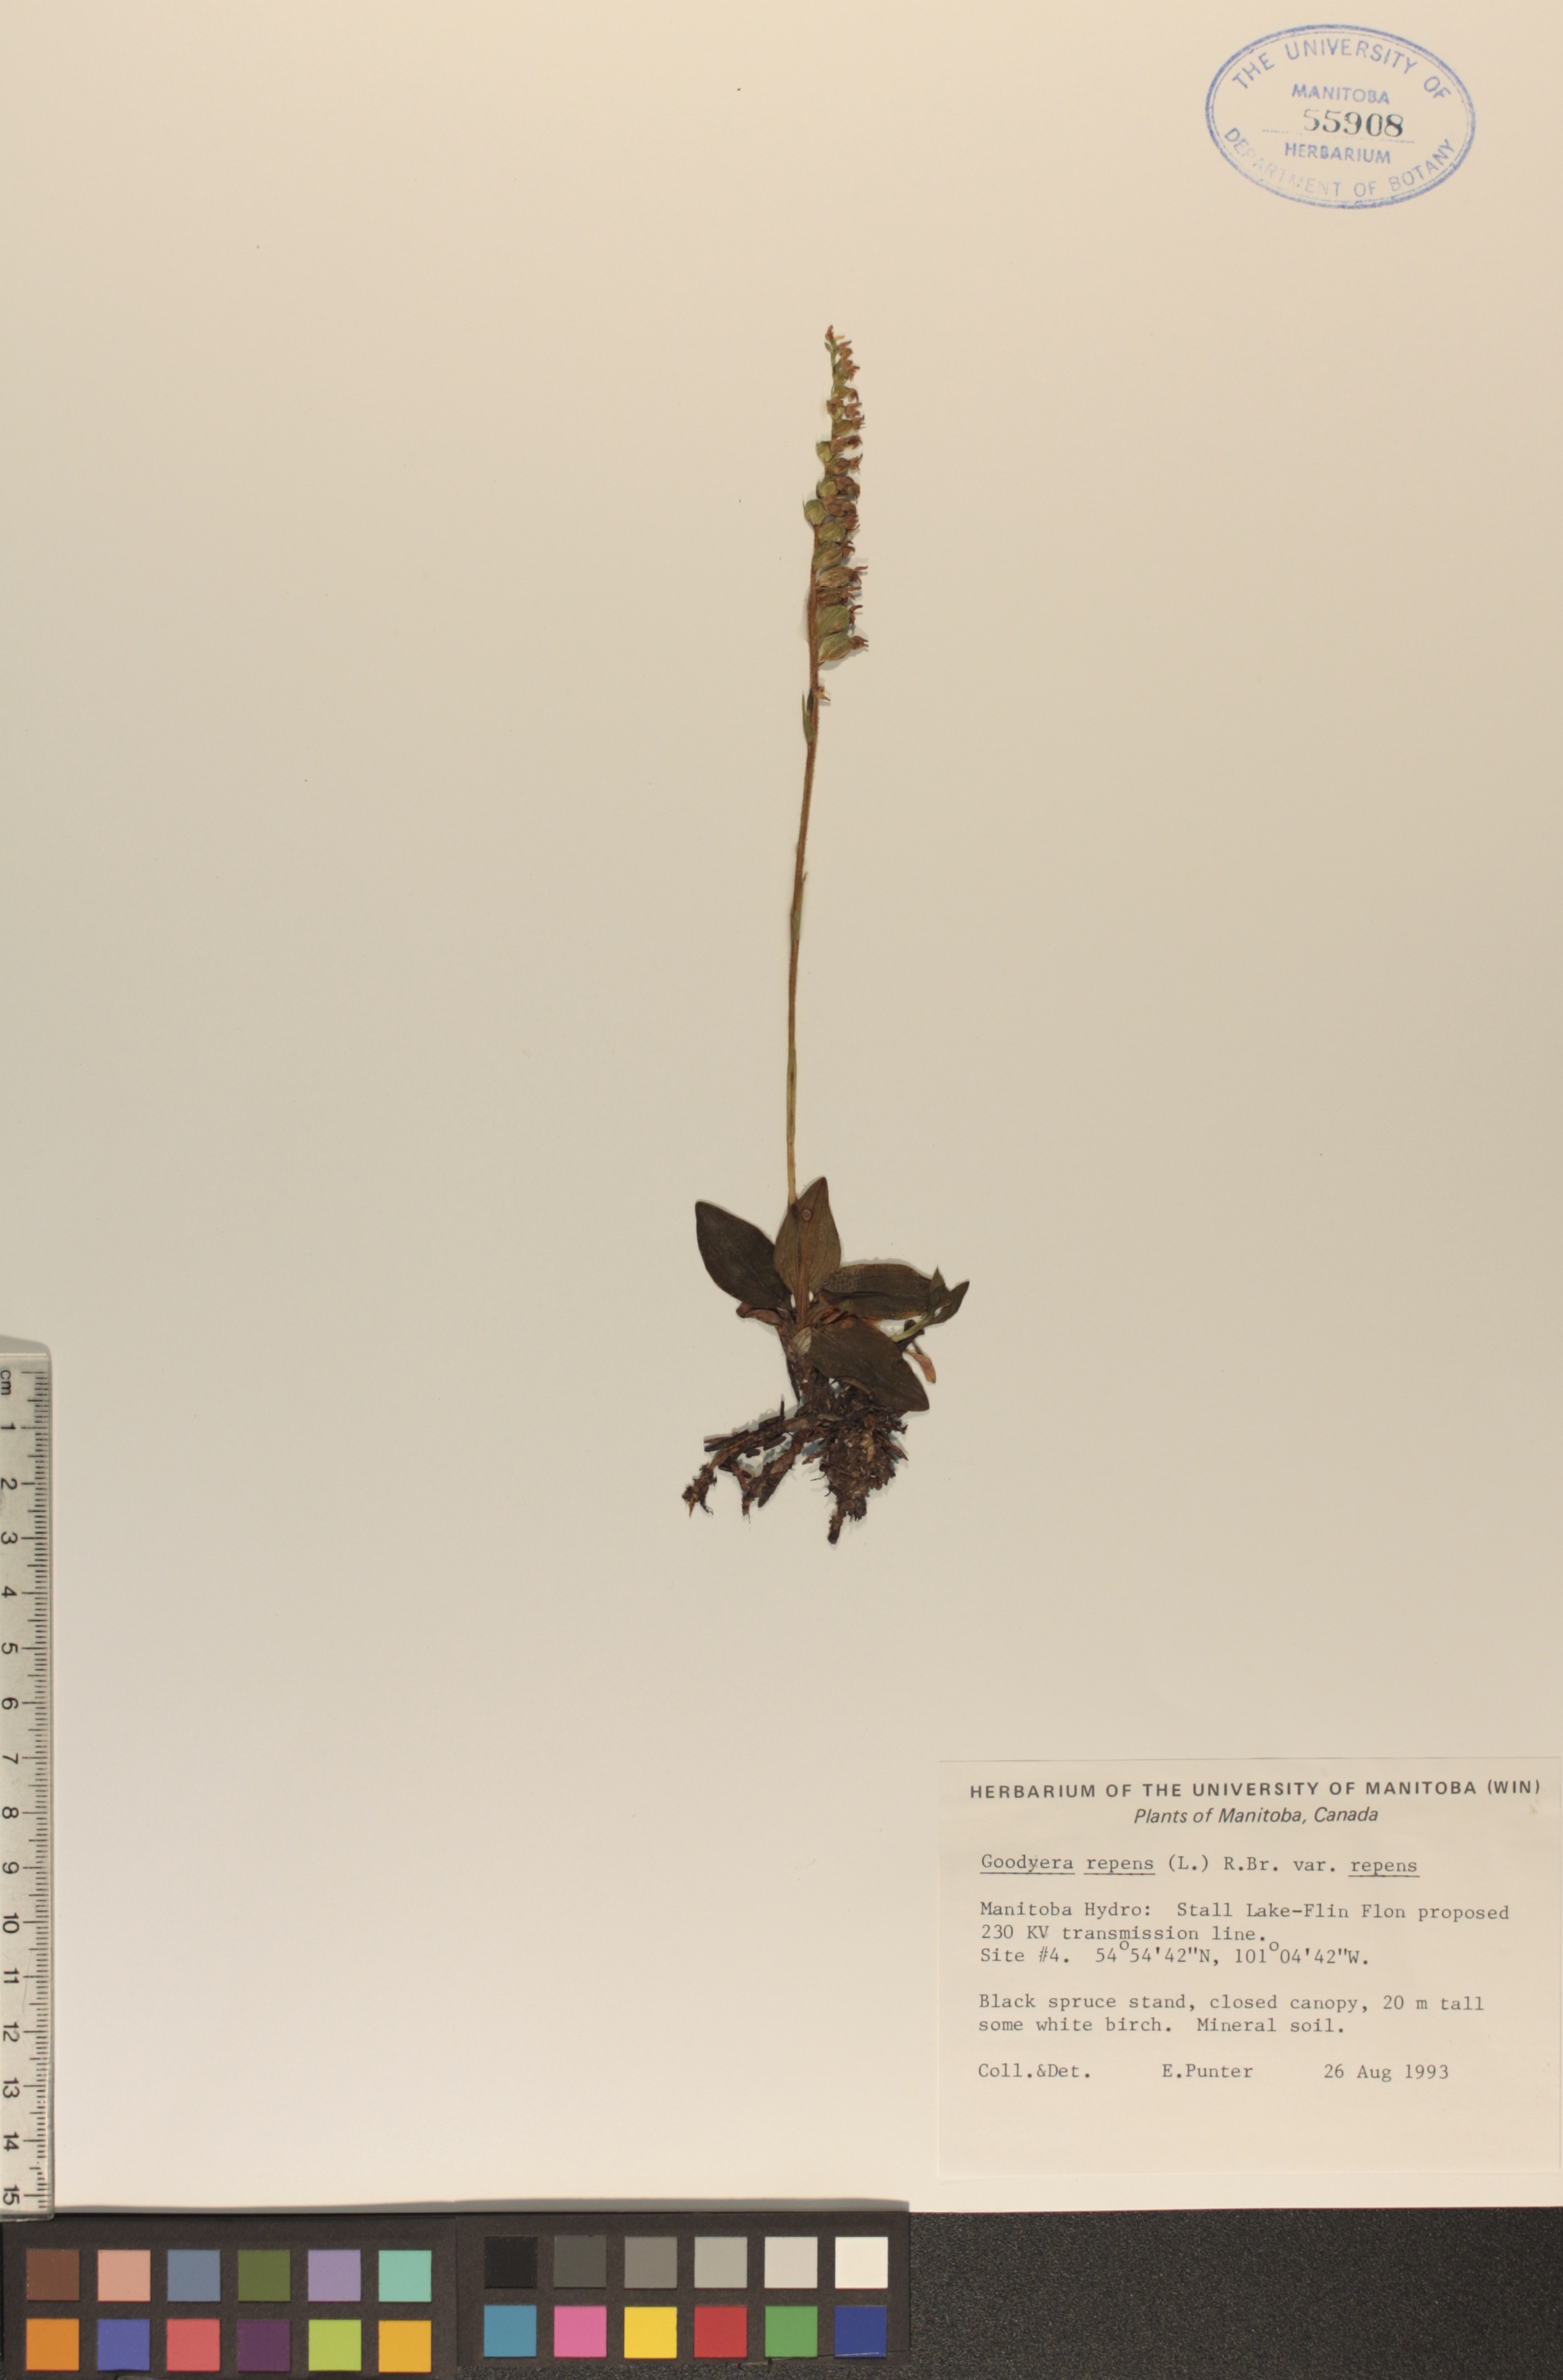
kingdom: Plantae
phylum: Tracheophyta
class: Liliopsida
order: Asparagales
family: Orchidaceae
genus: Goodyera
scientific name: Goodyera repens
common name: Creeping lady's-tresses
